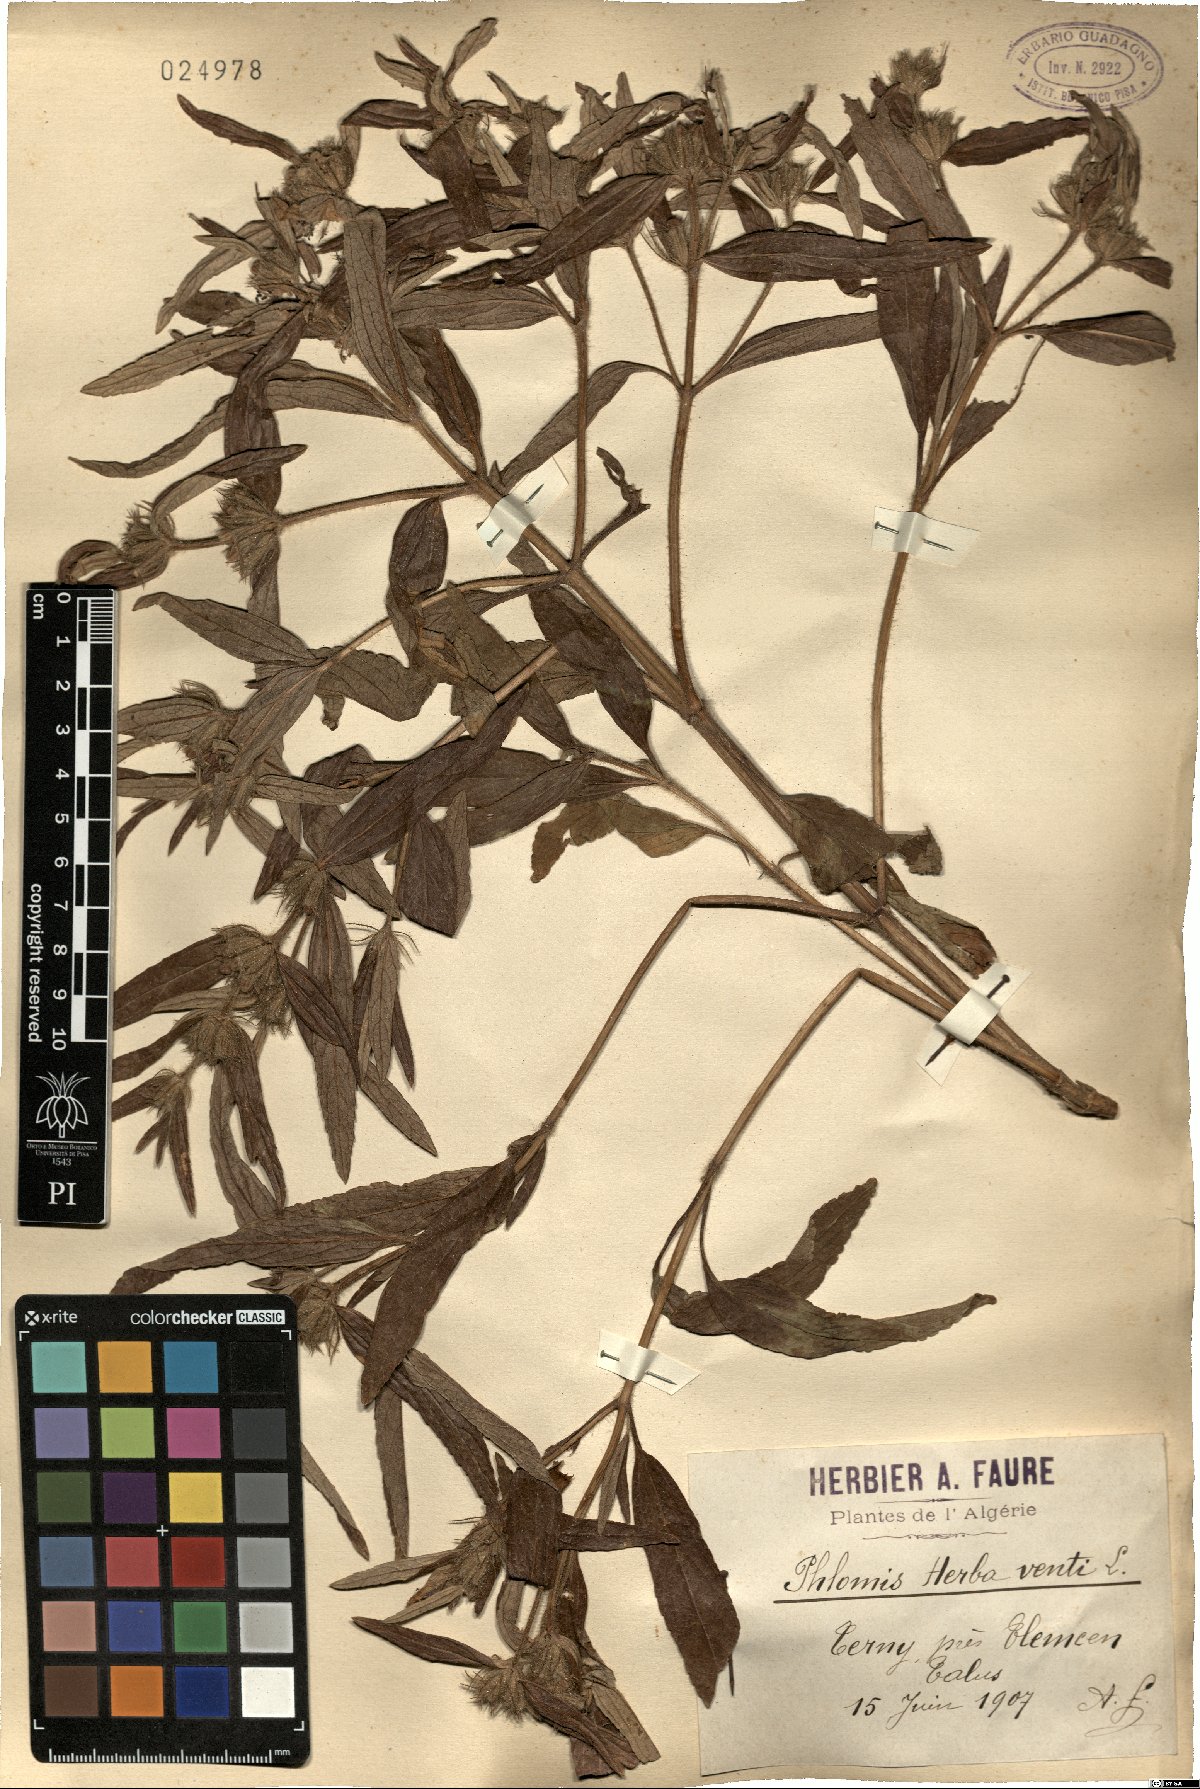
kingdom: Plantae
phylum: Tracheophyta
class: Magnoliopsida
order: Lamiales
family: Lamiaceae
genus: Phlomis
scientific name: Phlomis herba-venti
